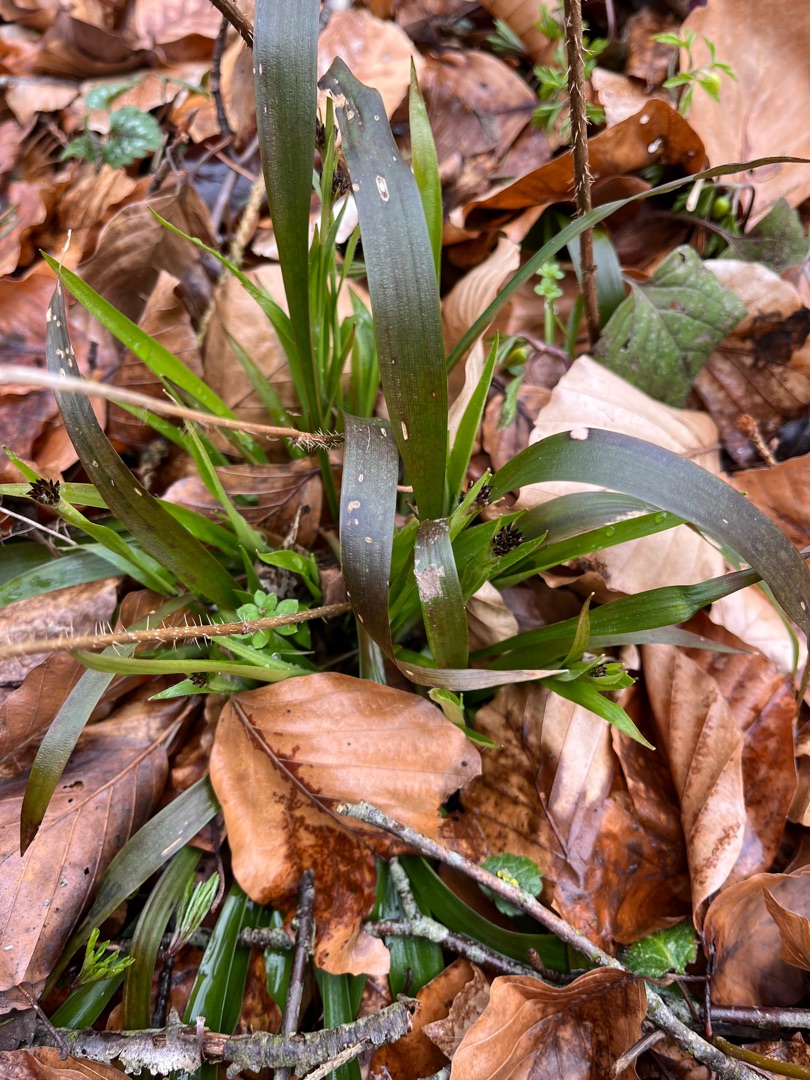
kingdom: Plantae
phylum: Tracheophyta
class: Liliopsida
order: Poales
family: Juncaceae
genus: Luzula
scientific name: Luzula pilosa
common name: Håret frytle
